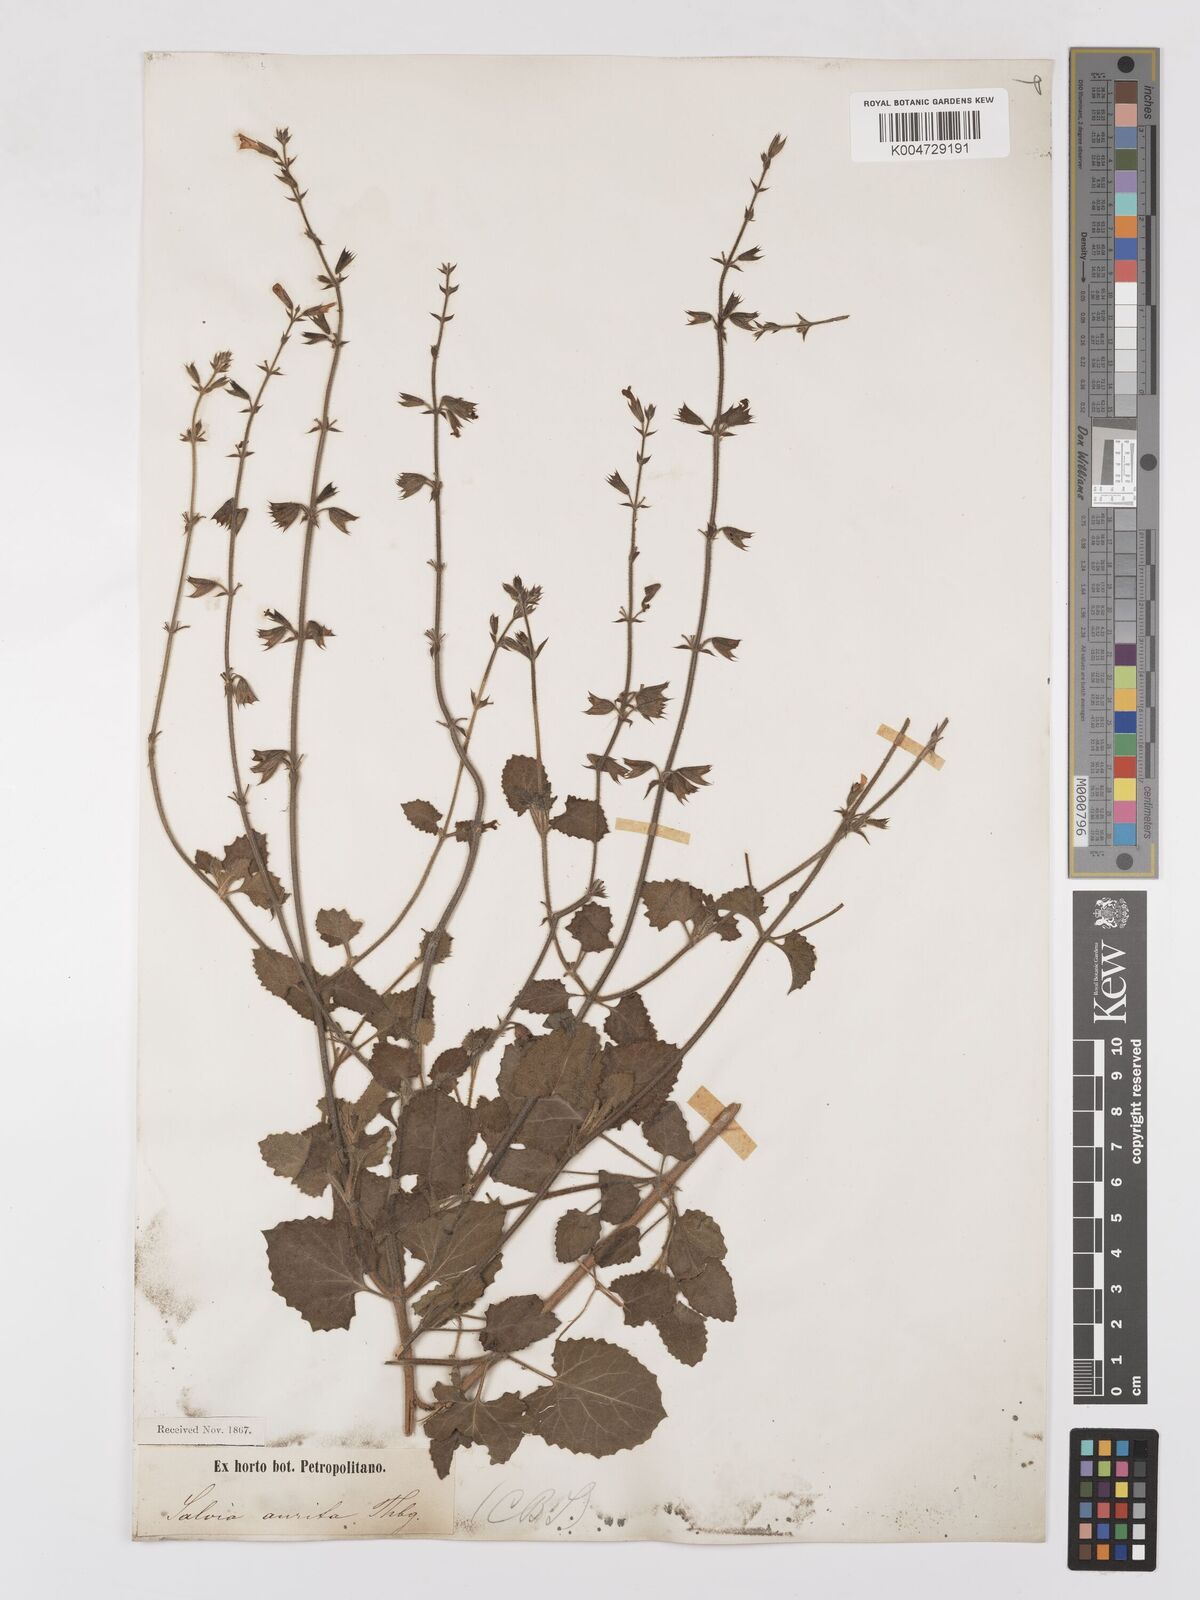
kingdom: Plantae
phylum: Tracheophyta
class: Magnoliopsida
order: Lamiales
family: Lamiaceae
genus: Salvia
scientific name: Salvia triangularis
